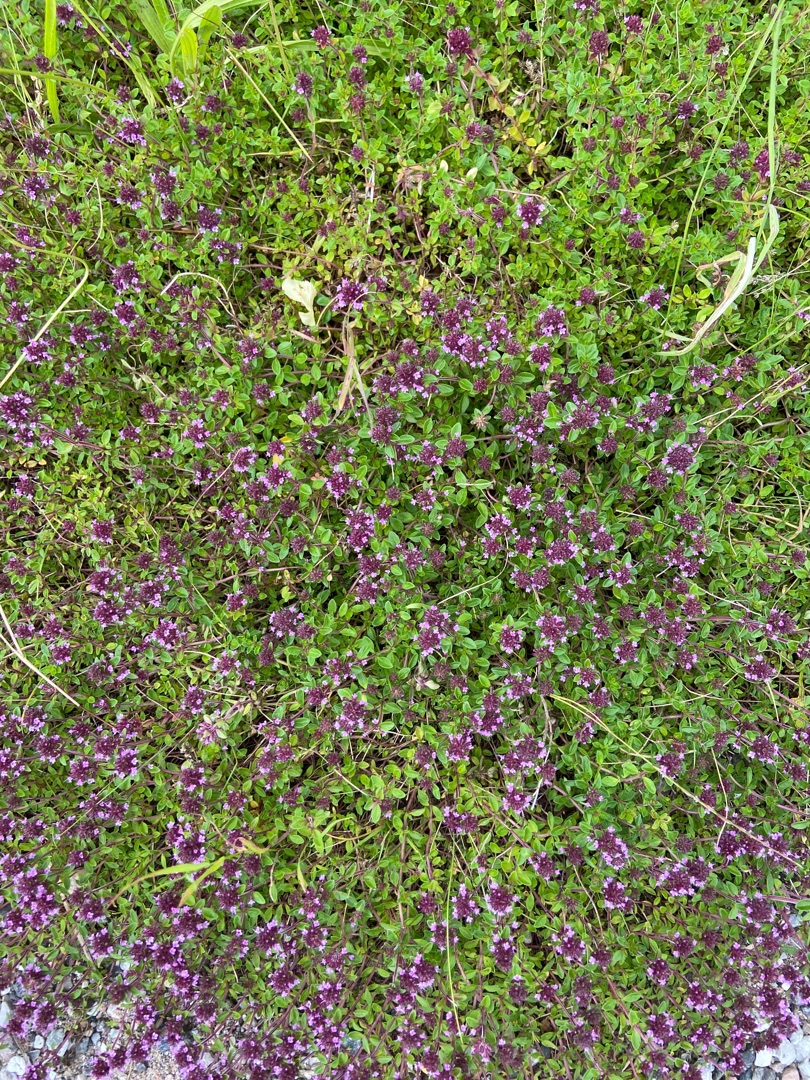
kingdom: Plantae
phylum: Tracheophyta
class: Magnoliopsida
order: Lamiales
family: Lamiaceae
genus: Thymus
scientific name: Thymus pulegioides
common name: Bredbladet timian
